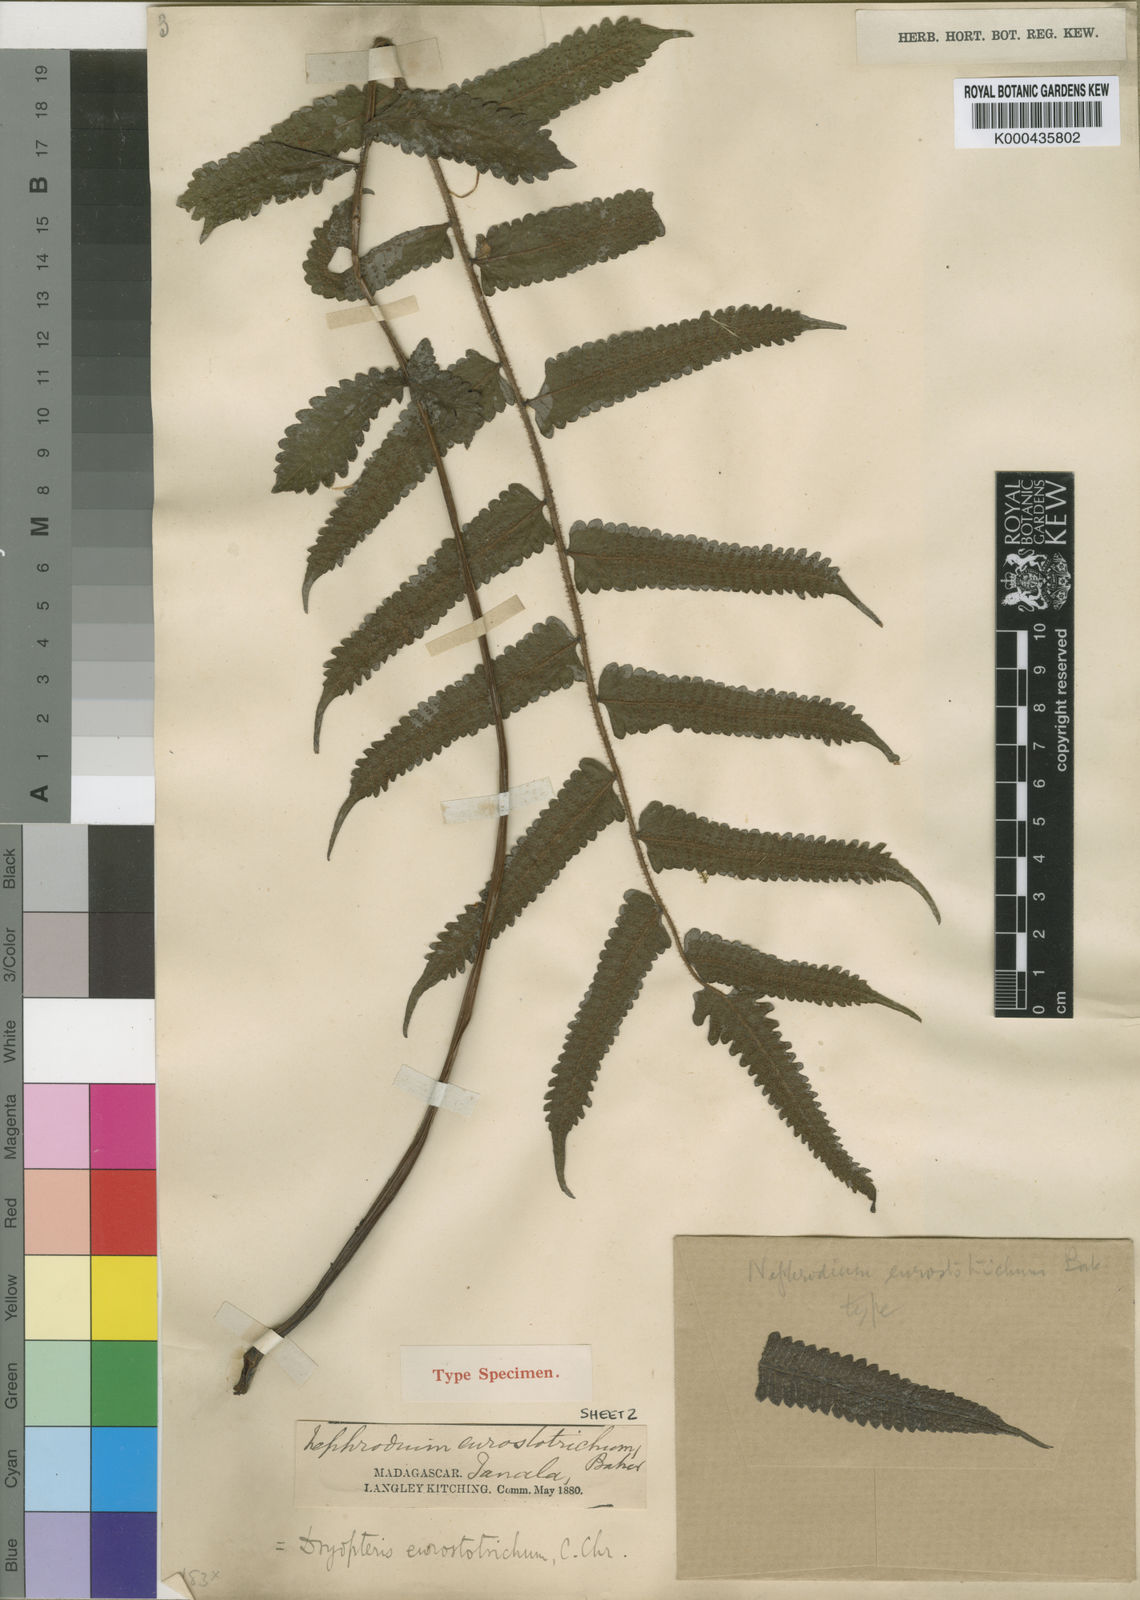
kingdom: Plantae
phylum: Tracheophyta
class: Polypodiopsida
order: Polypodiales
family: Thelypteridaceae
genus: Christella
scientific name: Christella distans
